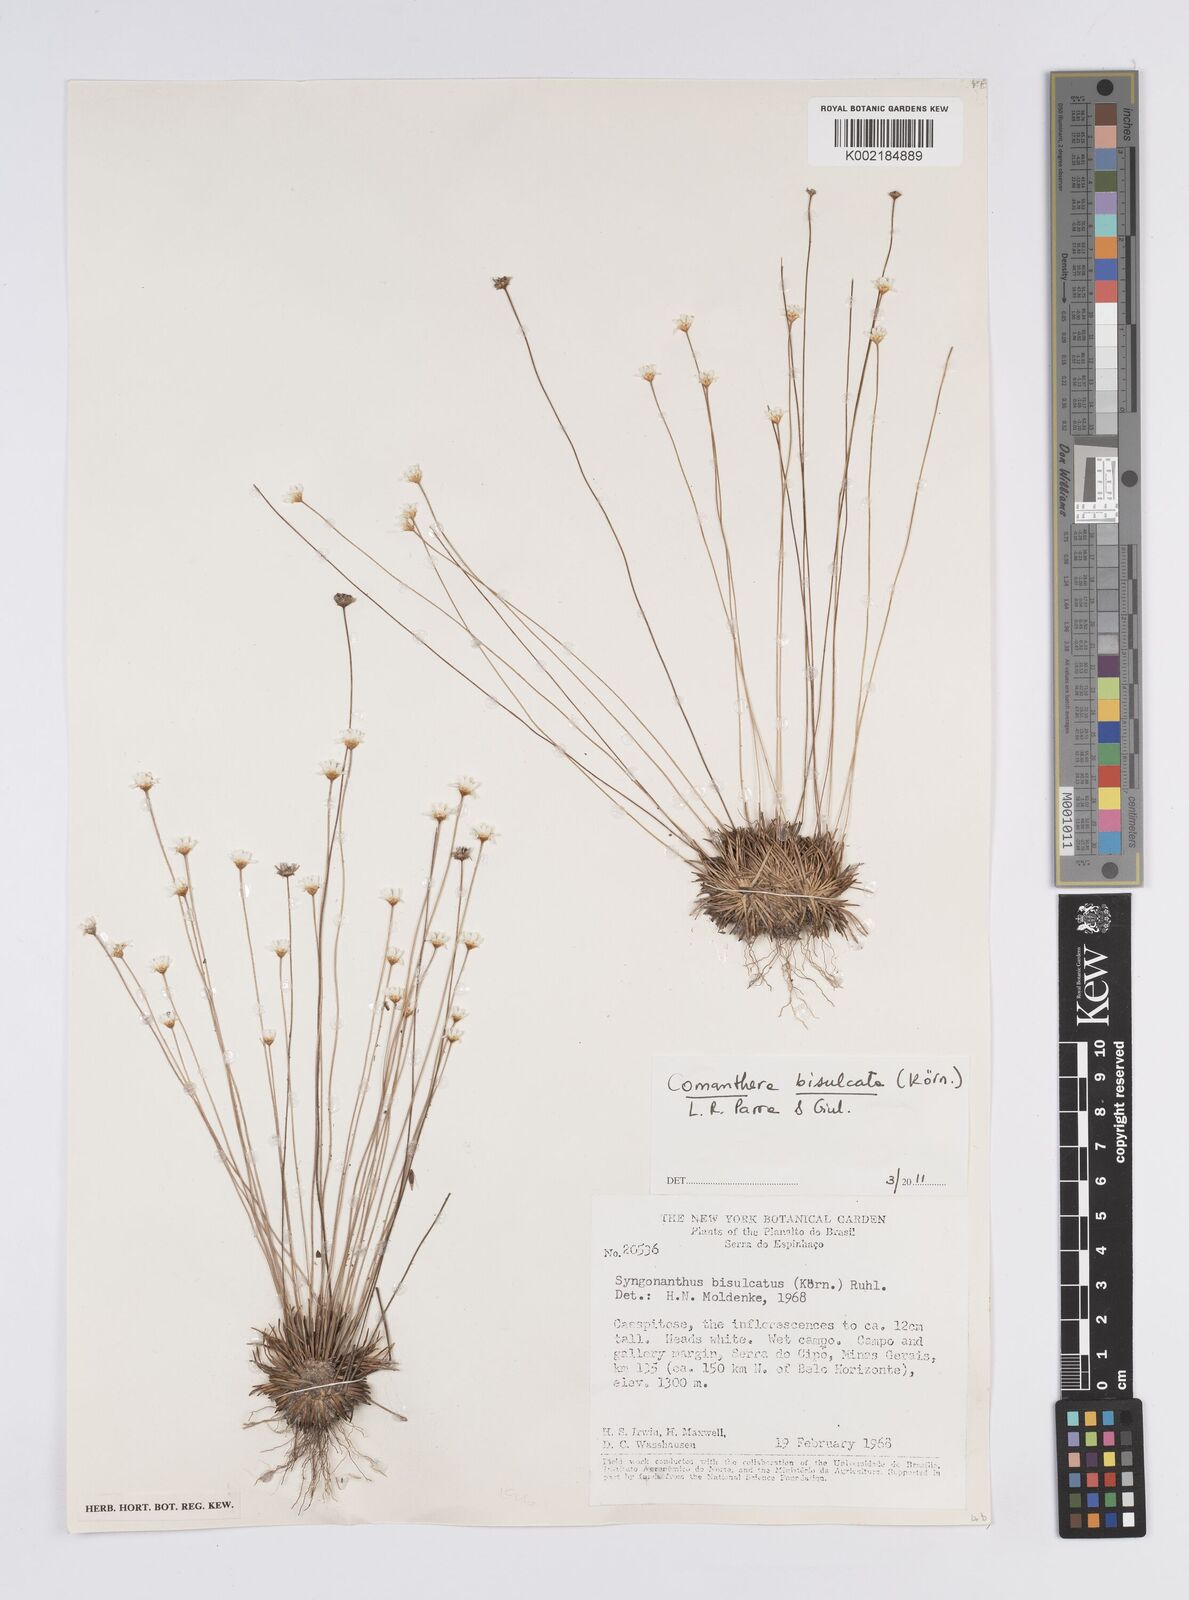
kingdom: Plantae
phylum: Tracheophyta
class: Liliopsida
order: Poales
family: Eriocaulaceae
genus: Comanthera
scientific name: Comanthera bisulcata
